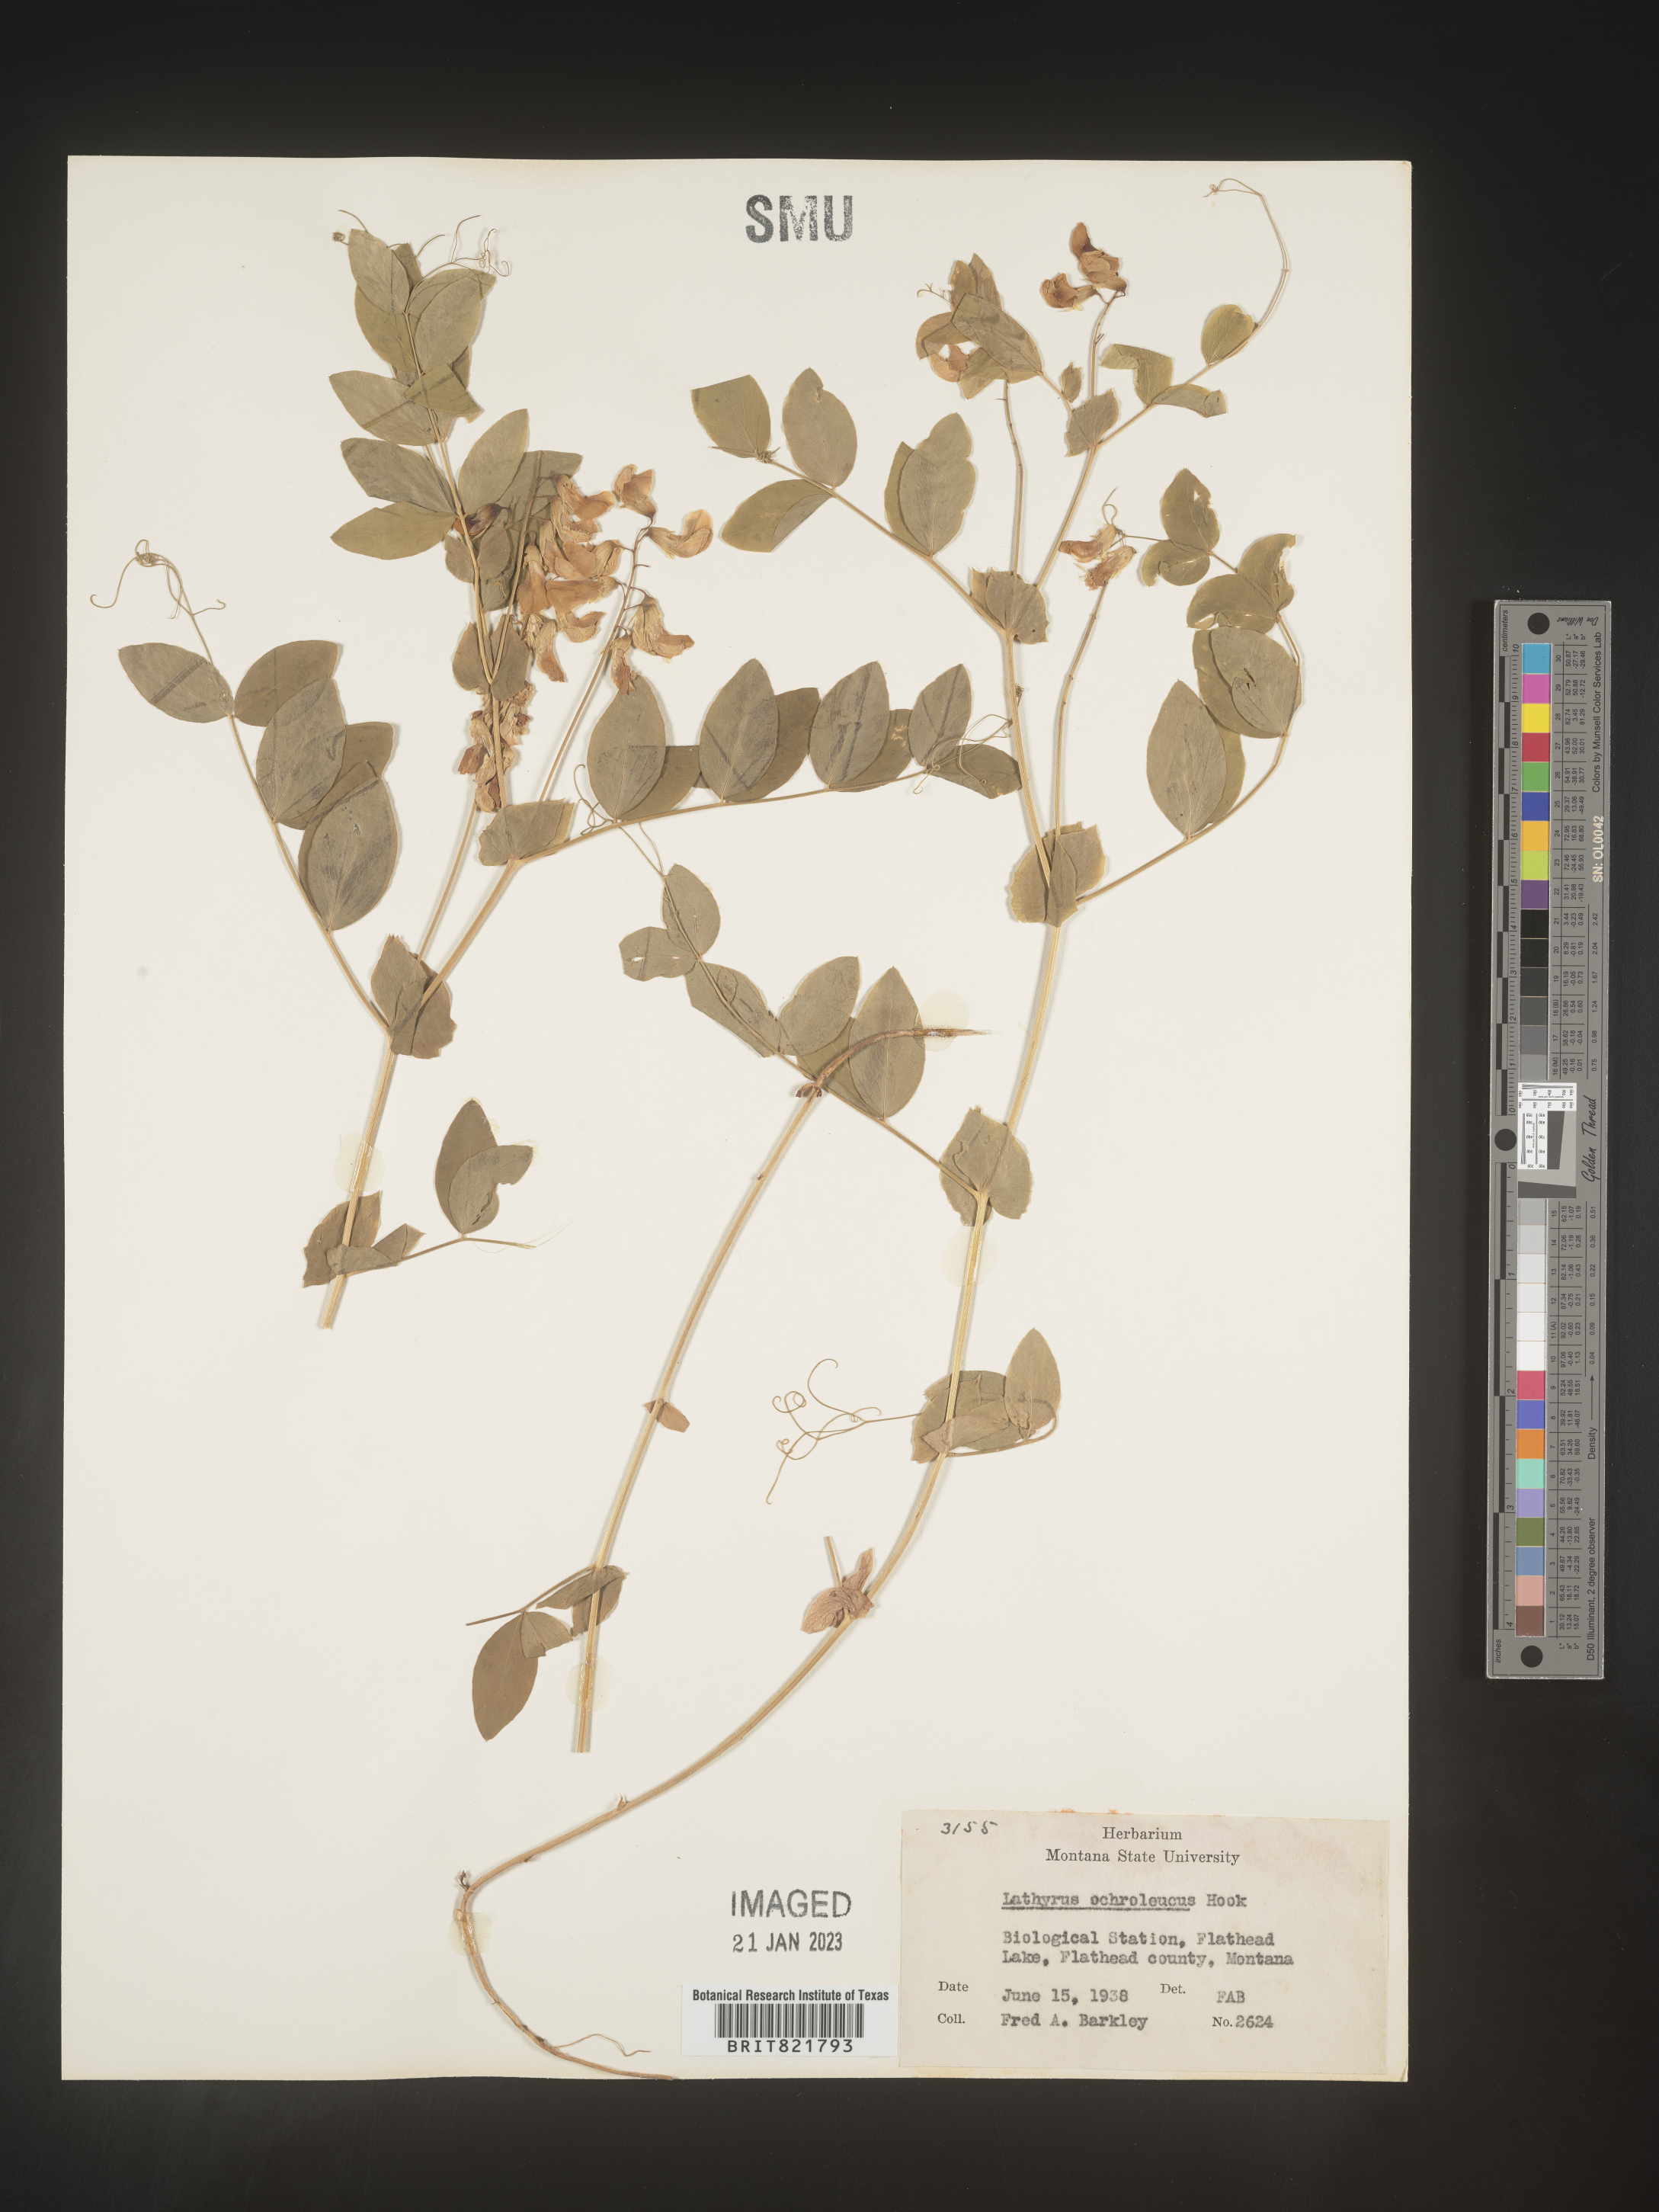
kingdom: Plantae
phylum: Tracheophyta
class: Magnoliopsida
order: Fabales
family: Fabaceae
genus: Lathyrus
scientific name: Lathyrus
